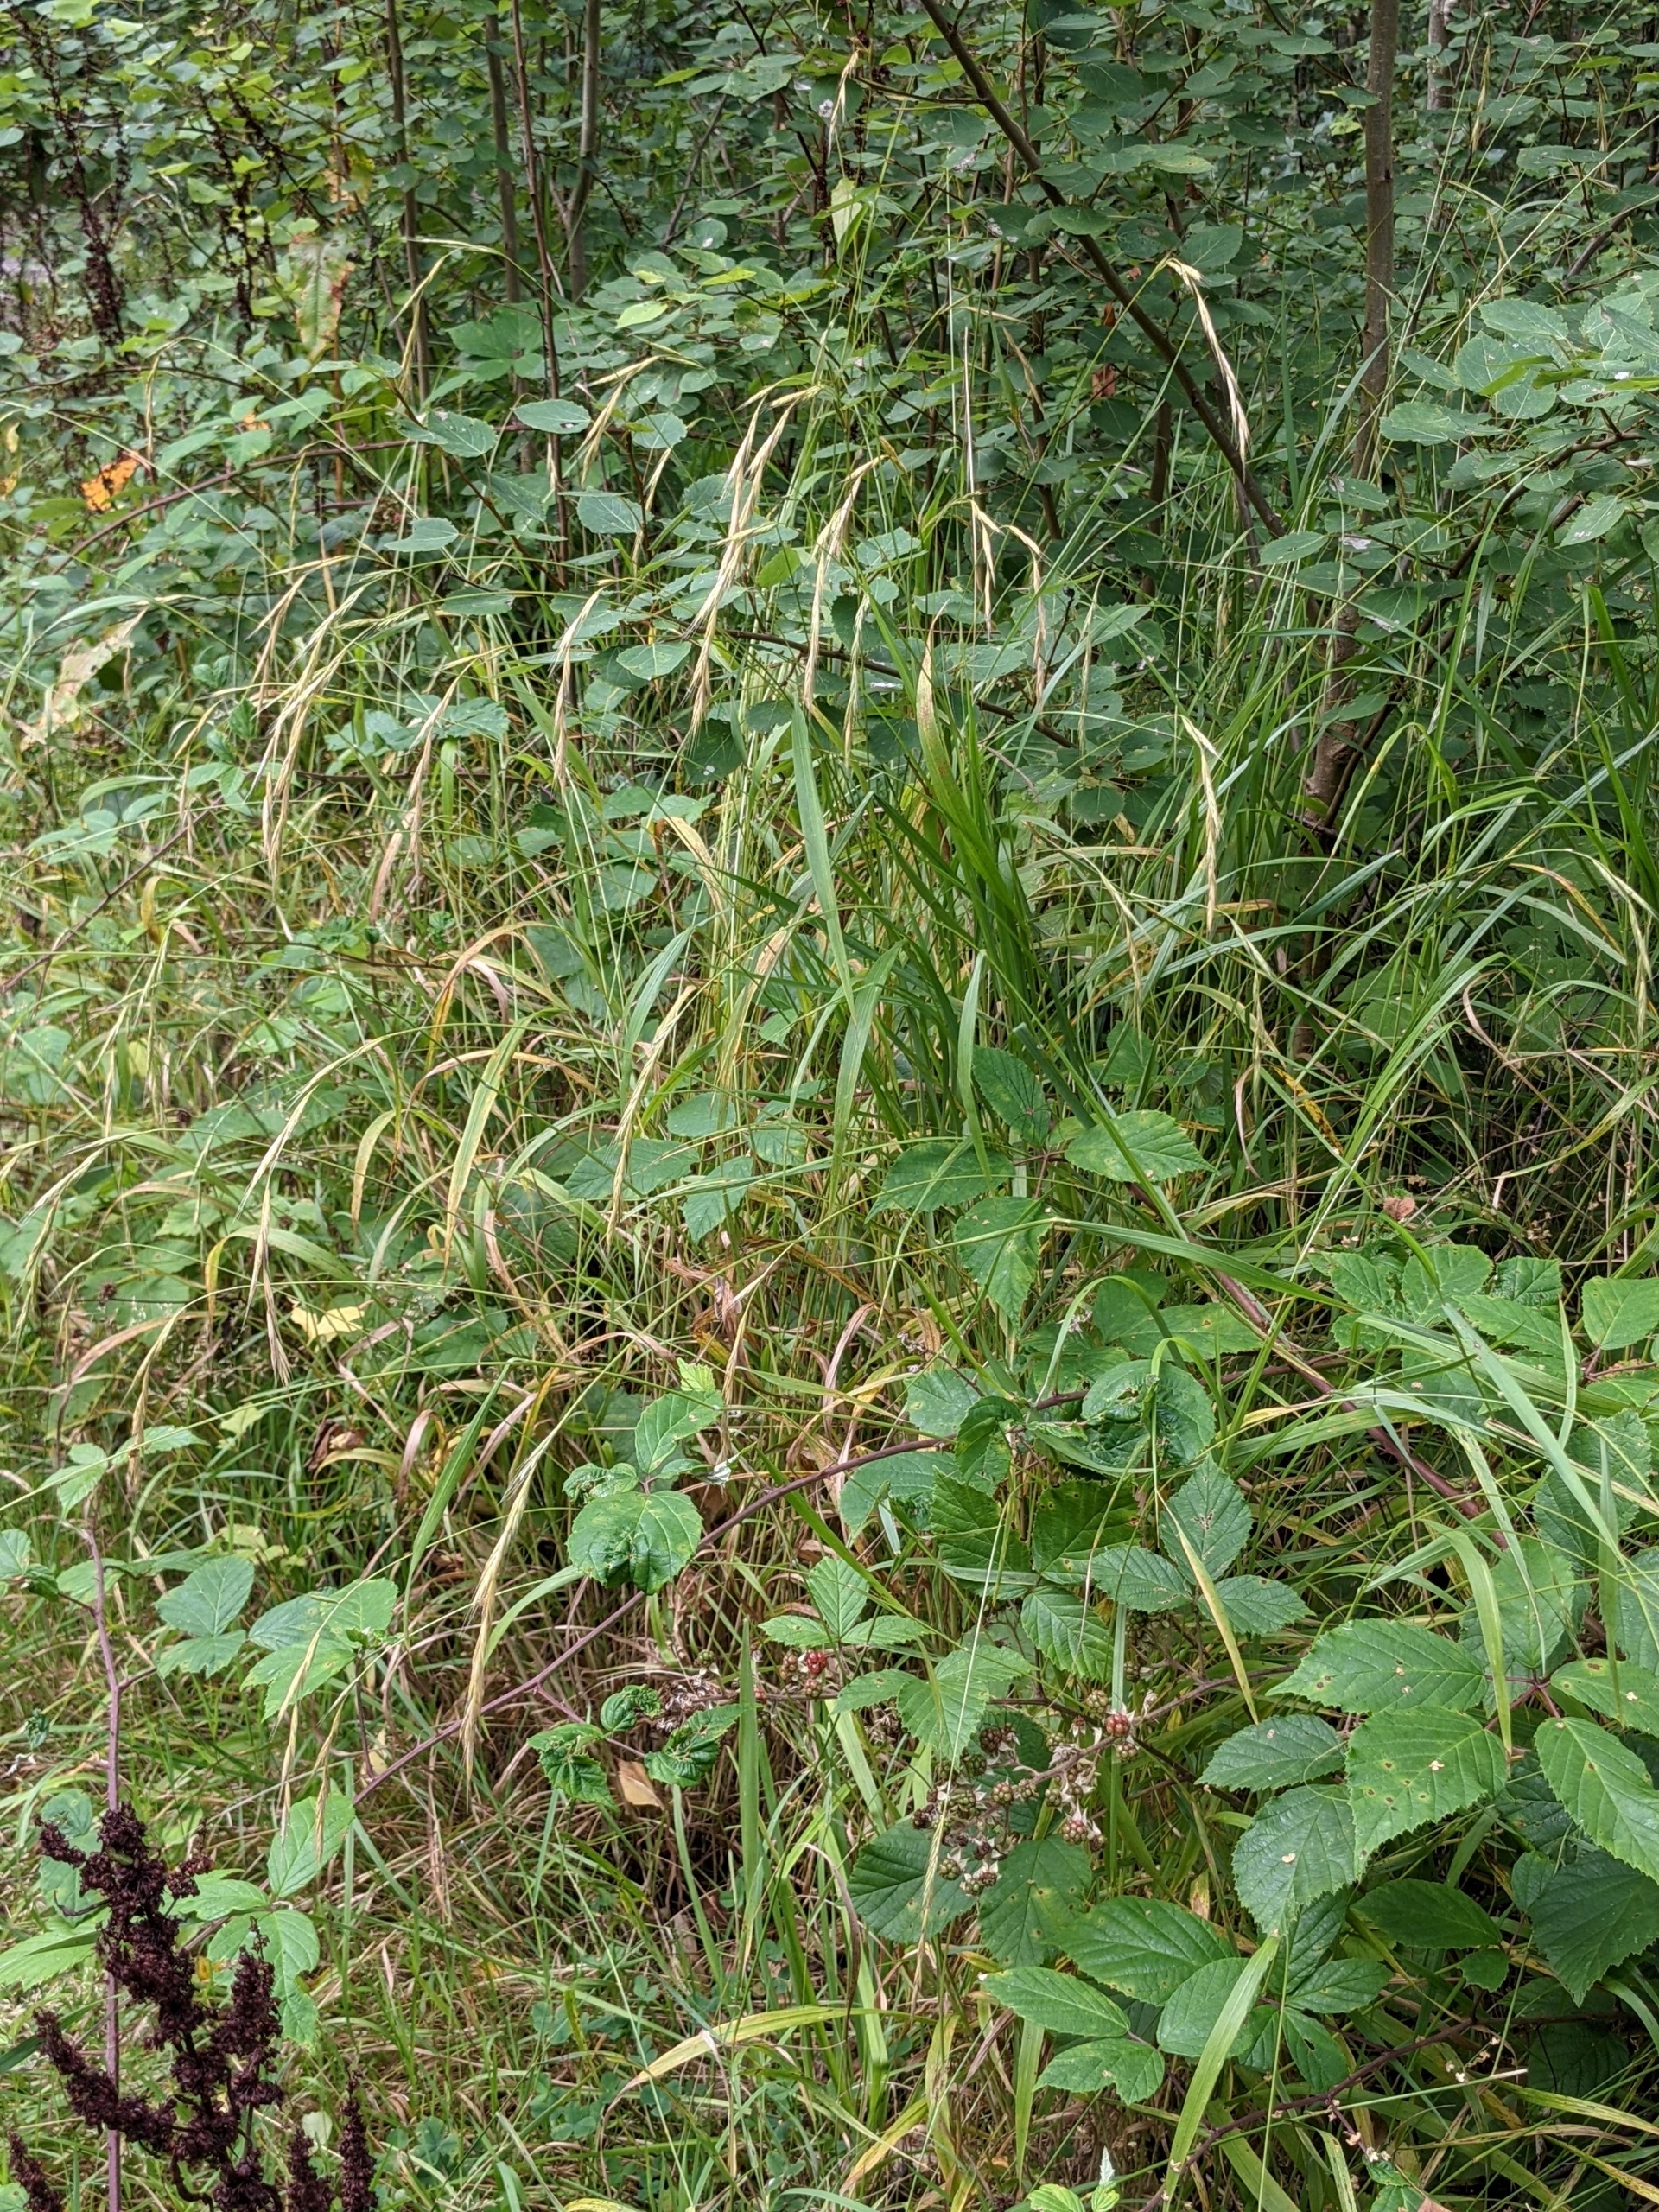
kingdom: Plantae
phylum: Tracheophyta
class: Liliopsida
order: Poales
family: Poaceae
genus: Brachypodium
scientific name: Brachypodium sylvaticum
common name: Skov-stilkaks
